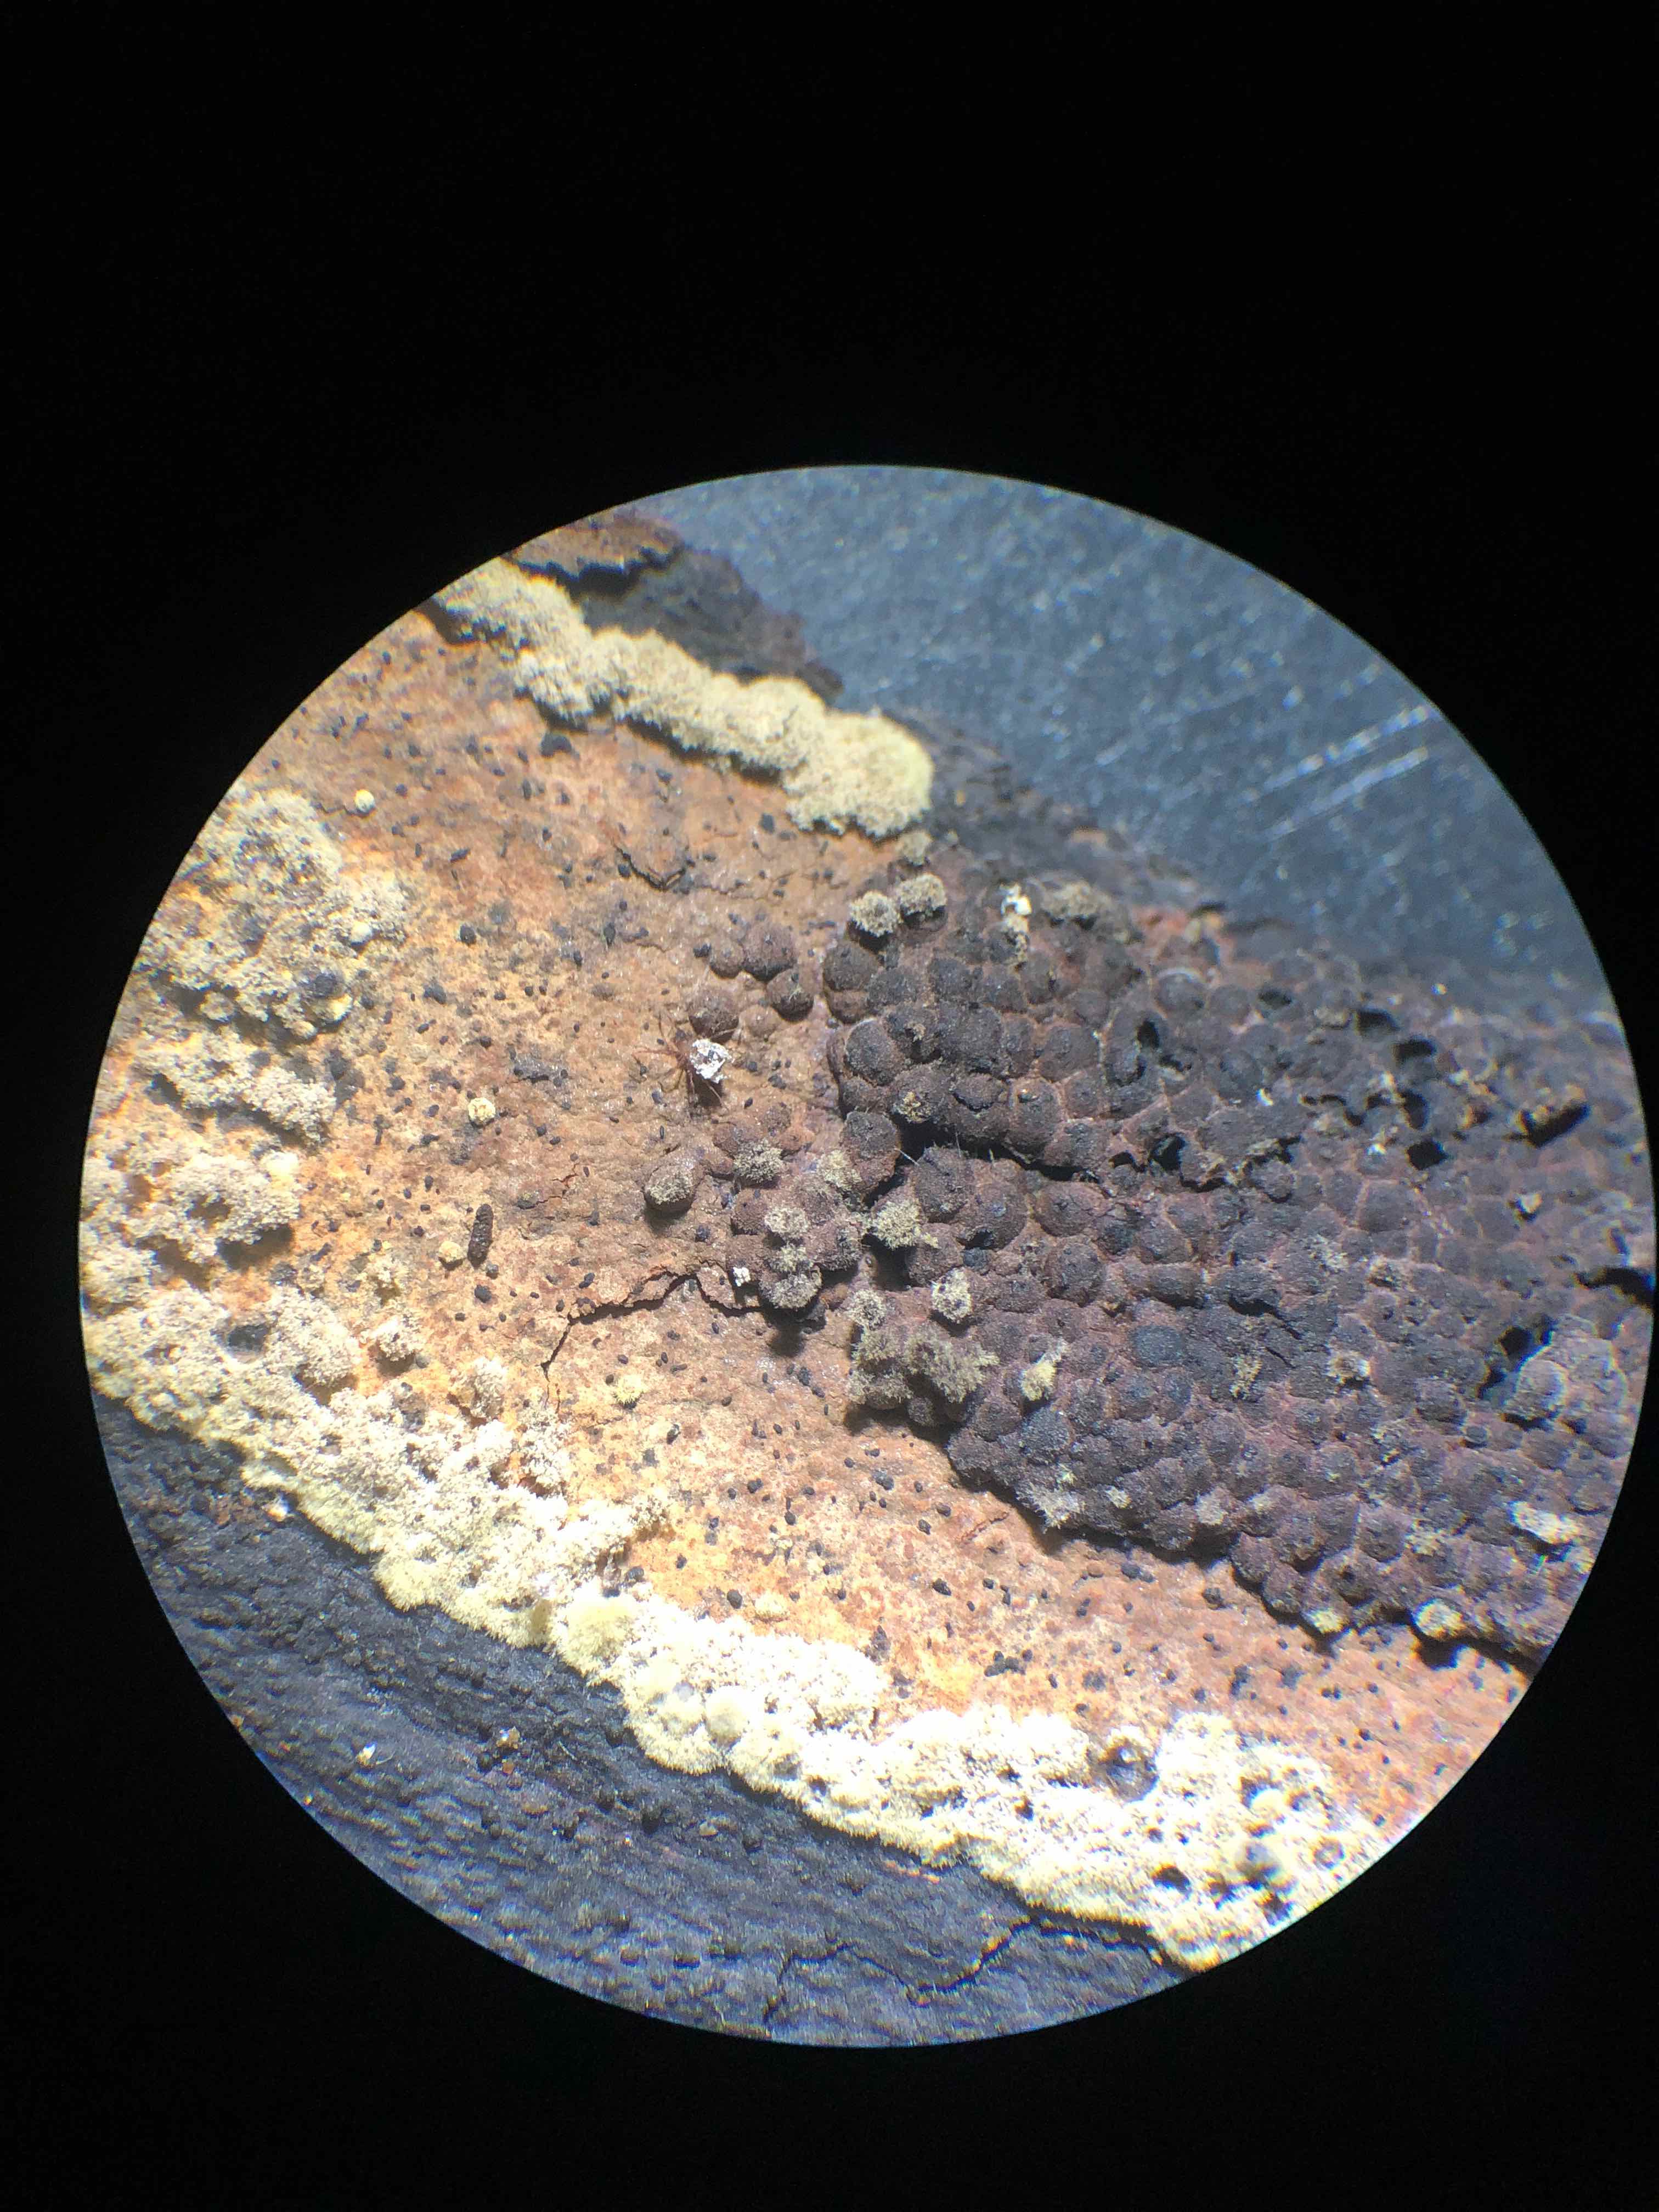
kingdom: Fungi
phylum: Ascomycota
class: Sordariomycetes
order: Xylariales
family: Hypoxylaceae
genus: Hypoxylon
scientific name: Hypoxylon rubiginosum
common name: rustfarvet kulbær
